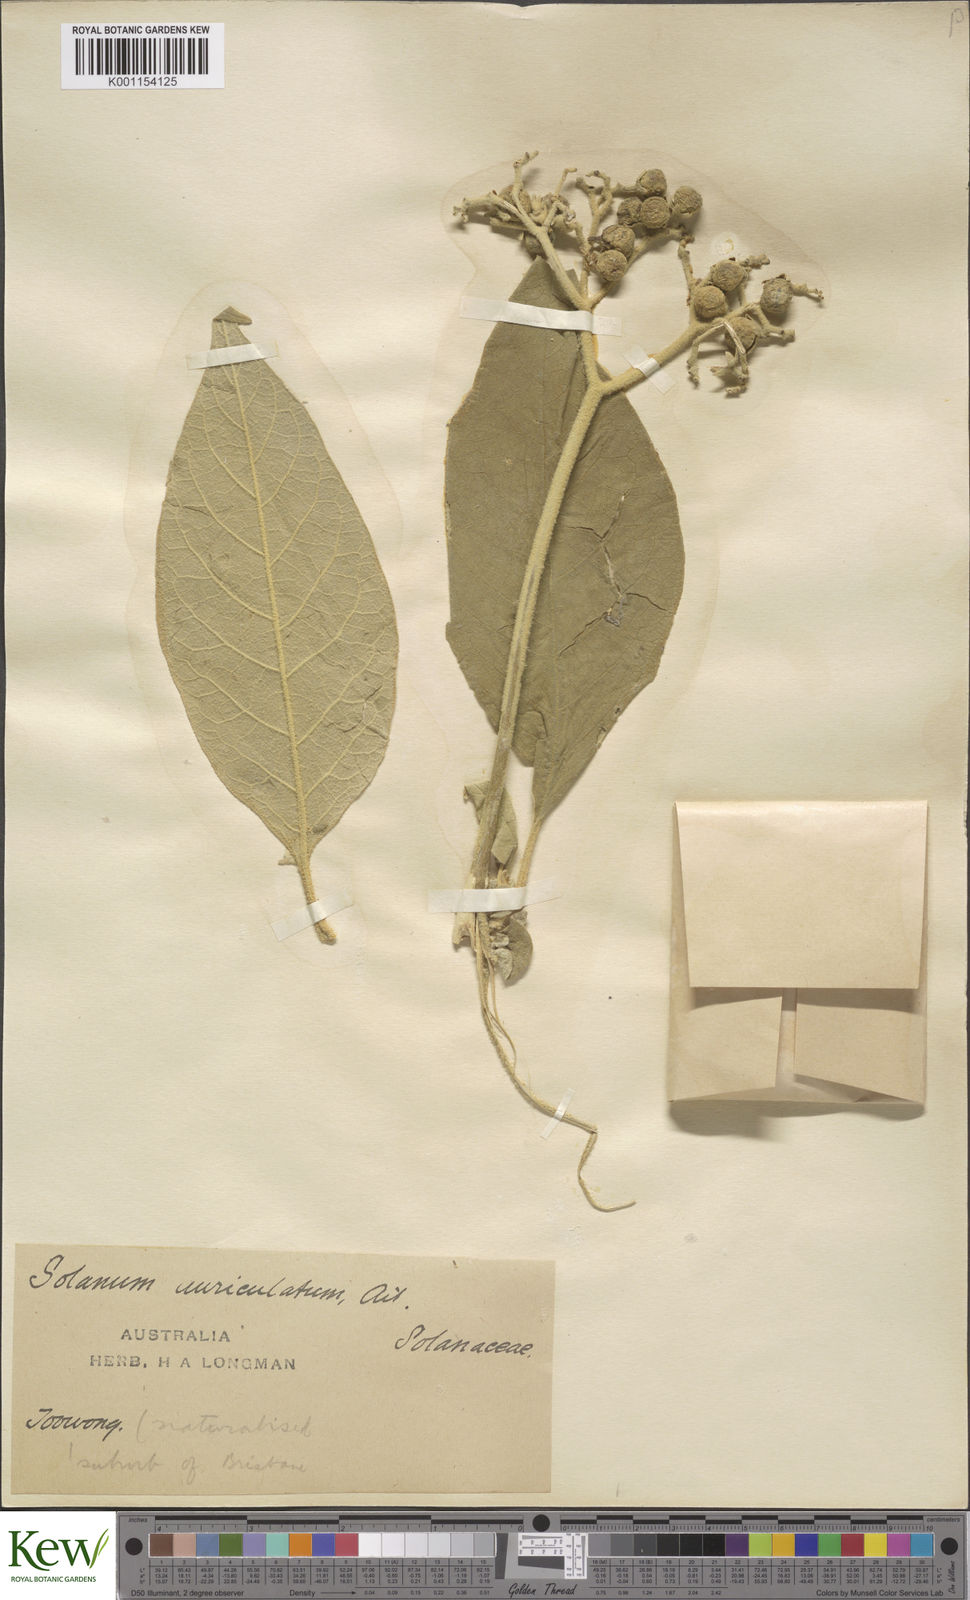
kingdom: Plantae
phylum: Tracheophyta
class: Magnoliopsida
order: Solanales
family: Solanaceae
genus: Solanum
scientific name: Solanum mauritianum
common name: Earleaf nightshade
